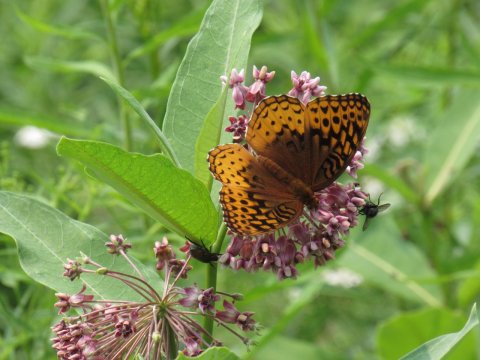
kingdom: Animalia
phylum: Arthropoda
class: Insecta
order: Lepidoptera
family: Nymphalidae
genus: Speyeria
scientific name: Speyeria cybele
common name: Great Spangled Fritillary
